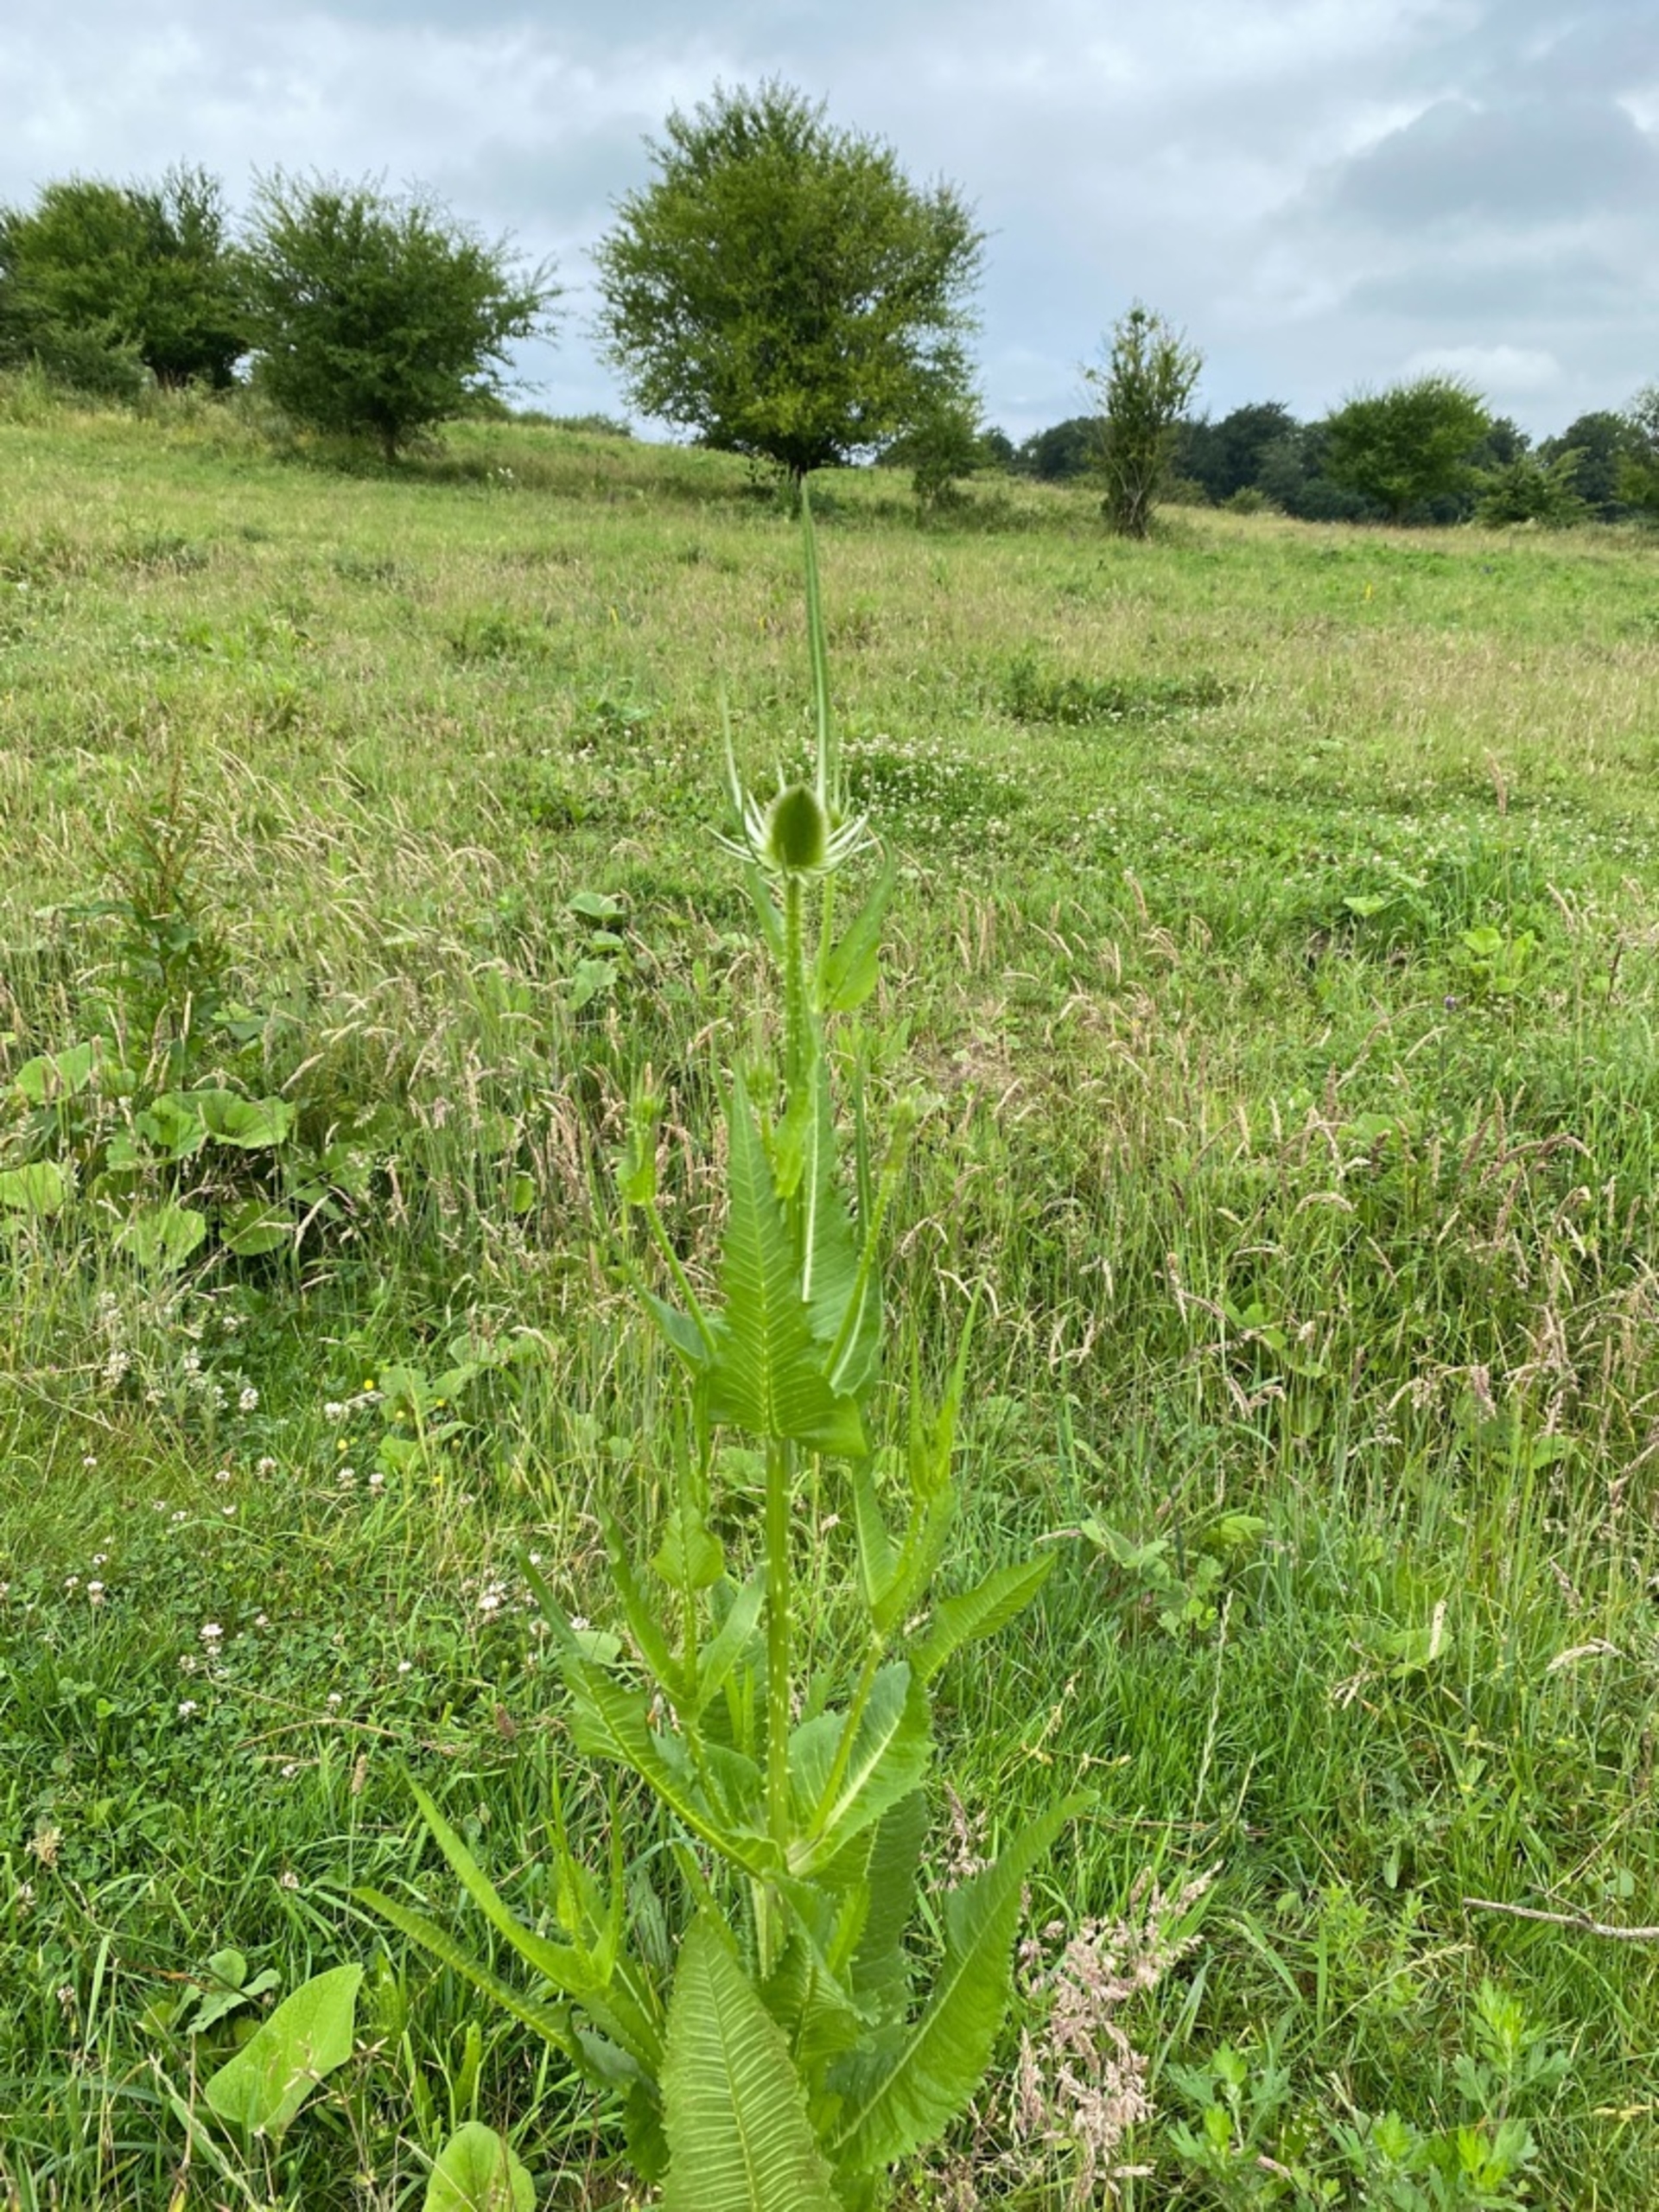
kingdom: Plantae
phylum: Tracheophyta
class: Magnoliopsida
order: Dipsacales
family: Caprifoliaceae
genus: Dipsacus
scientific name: Dipsacus fullonum
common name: Gærde-kartebolle
